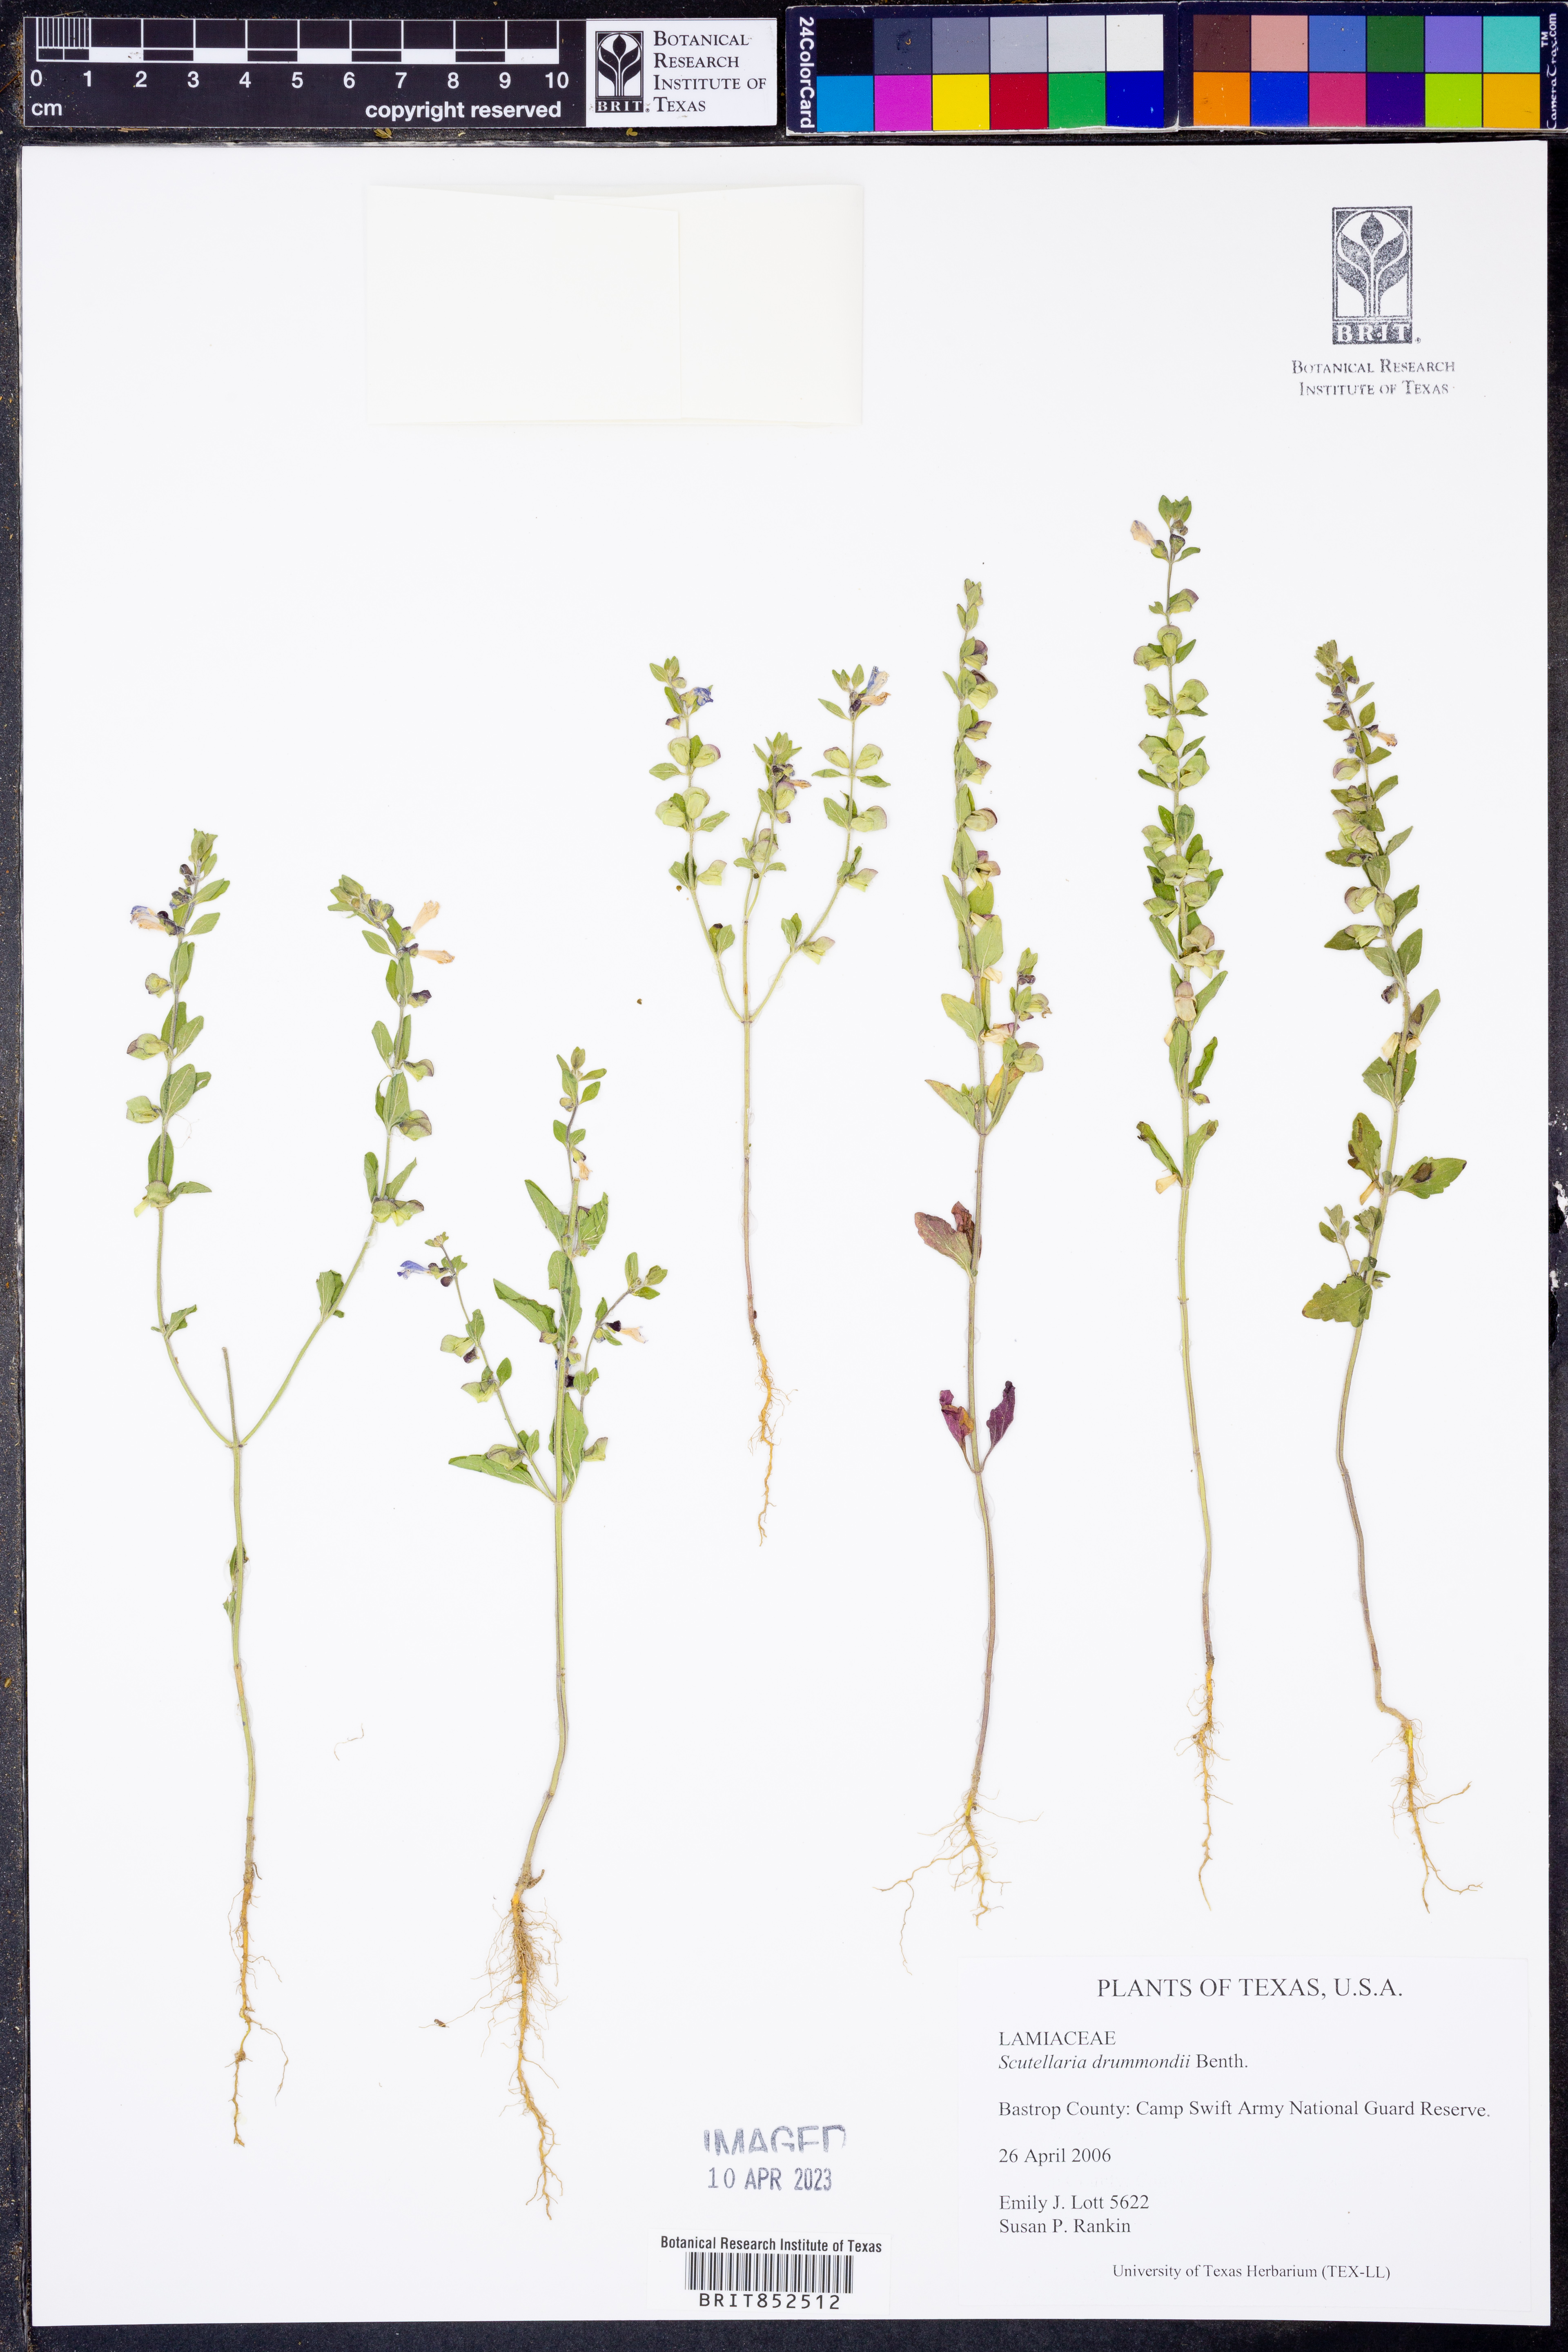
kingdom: Plantae
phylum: Tracheophyta
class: Magnoliopsida
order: Lamiales
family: Lamiaceae
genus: Scutellaria
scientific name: Scutellaria drummondii
